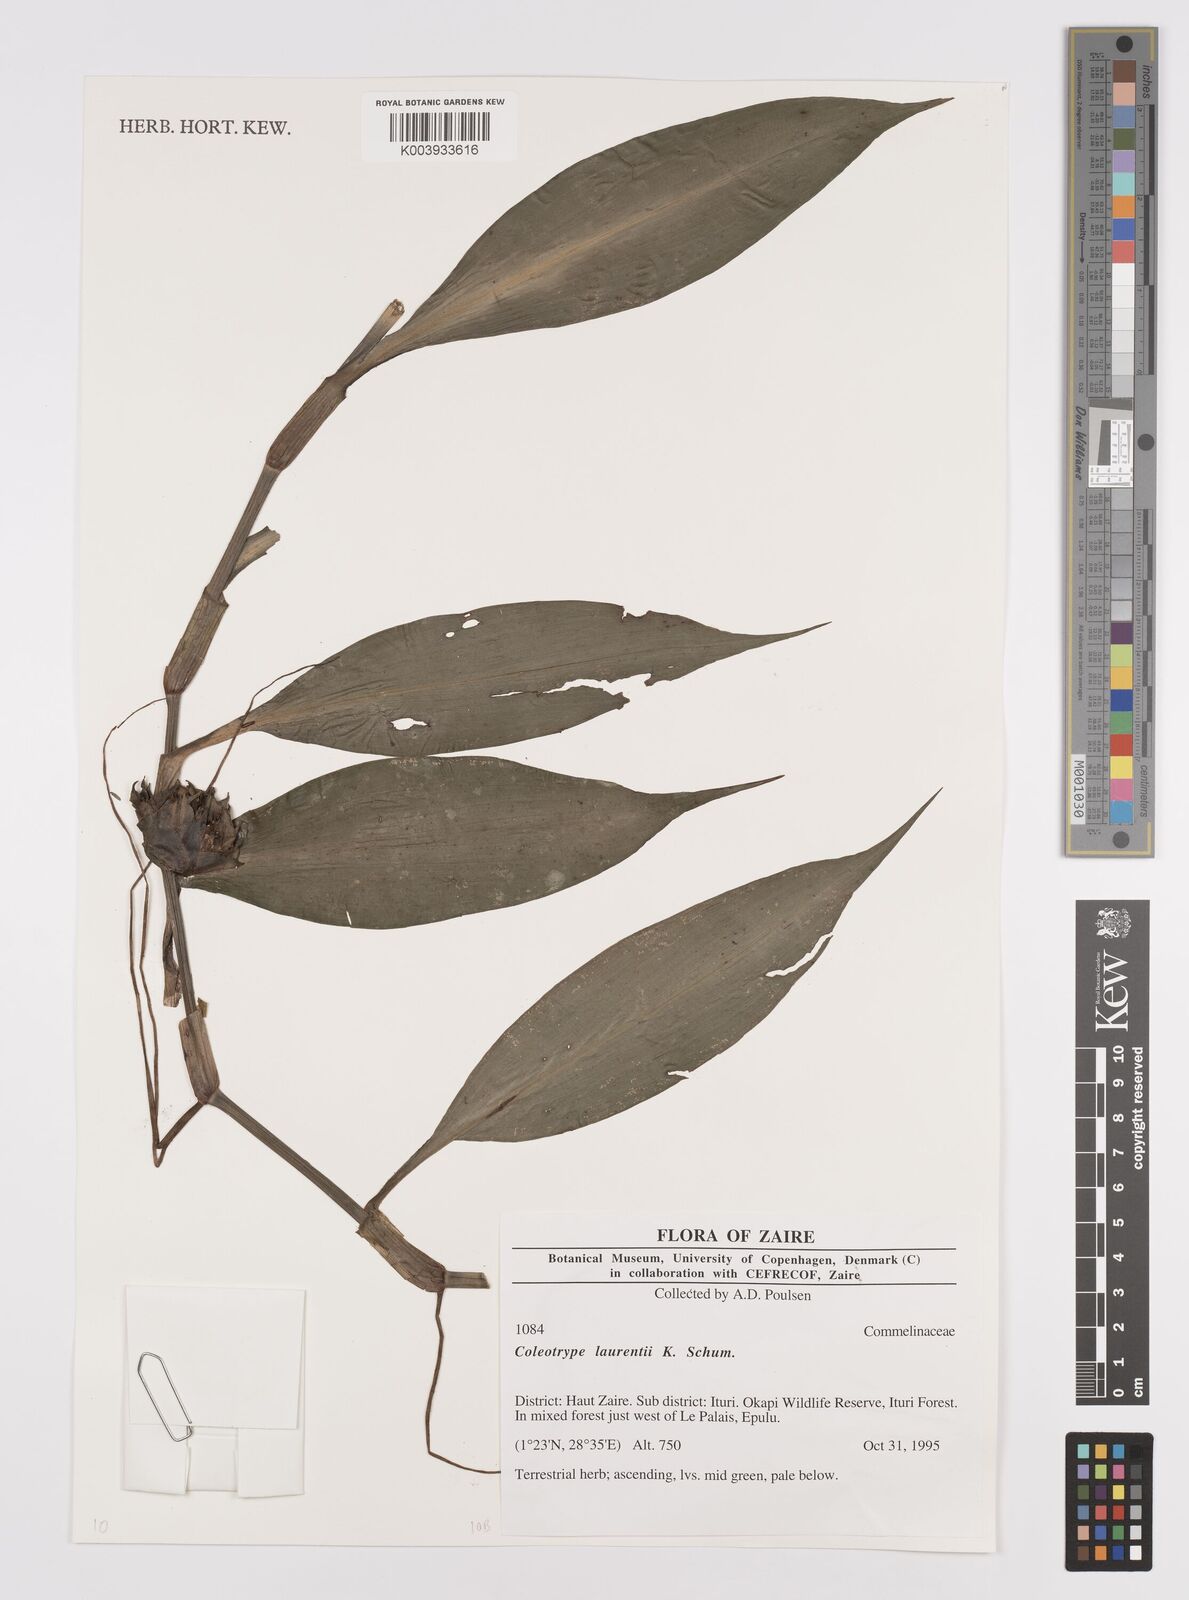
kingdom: Plantae
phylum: Tracheophyta
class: Liliopsida
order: Commelinales
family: Commelinaceae
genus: Coleotrype
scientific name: Coleotrype laurentii
